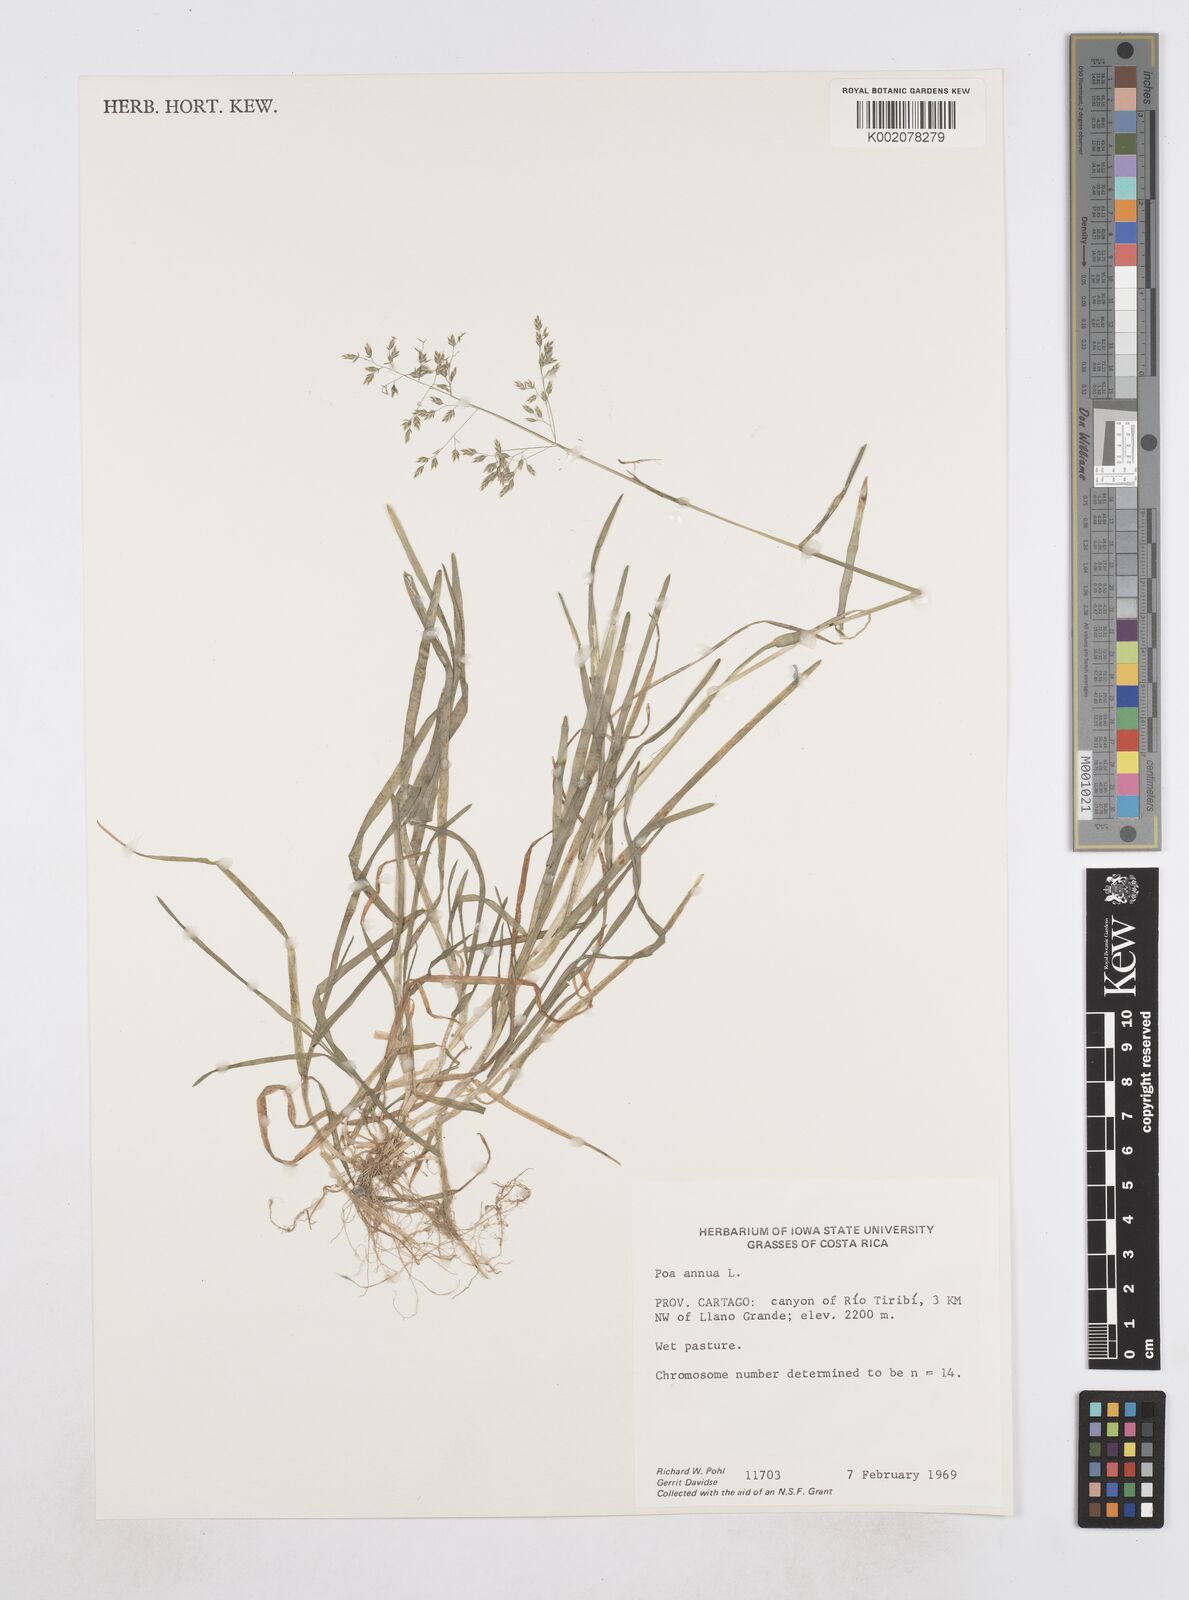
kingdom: Plantae
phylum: Tracheophyta
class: Liliopsida
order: Poales
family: Poaceae
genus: Poa
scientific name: Poa annua
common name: Annual bluegrass
